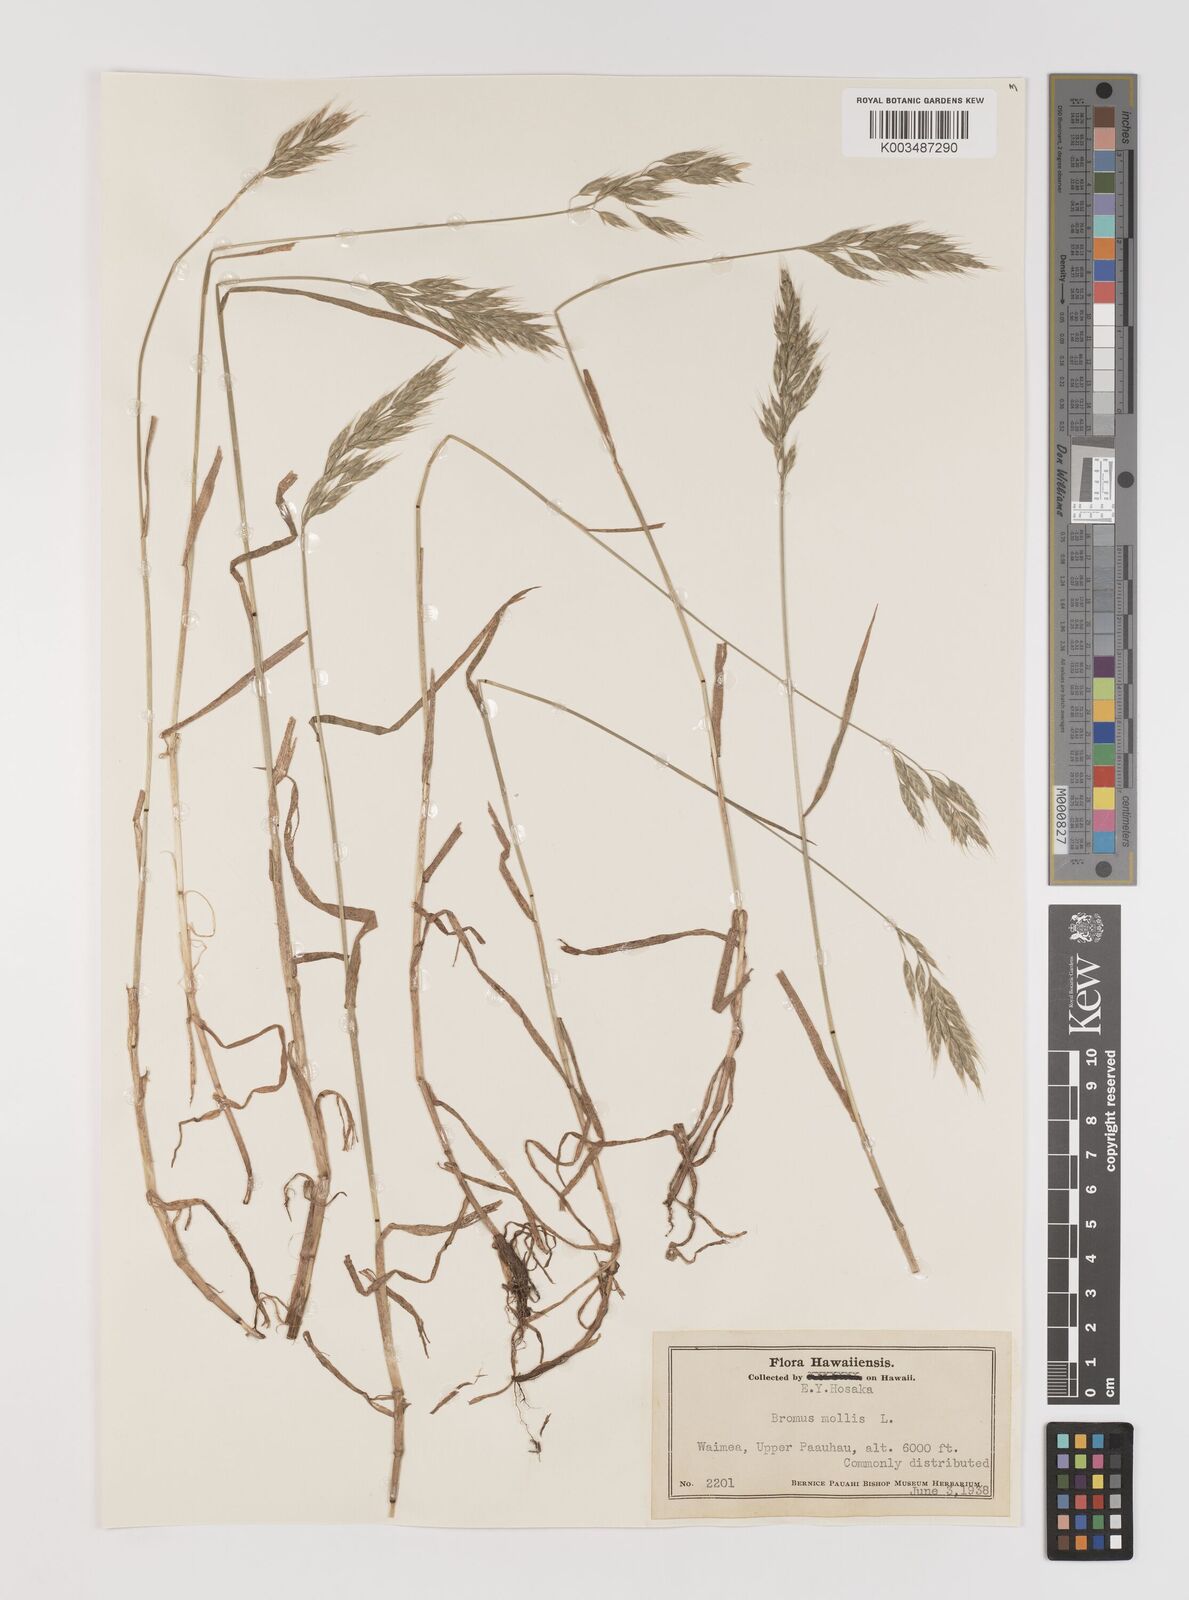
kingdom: Plantae
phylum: Tracheophyta
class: Liliopsida
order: Poales
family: Poaceae
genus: Bromus
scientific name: Bromus hordeaceus
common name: Soft brome
